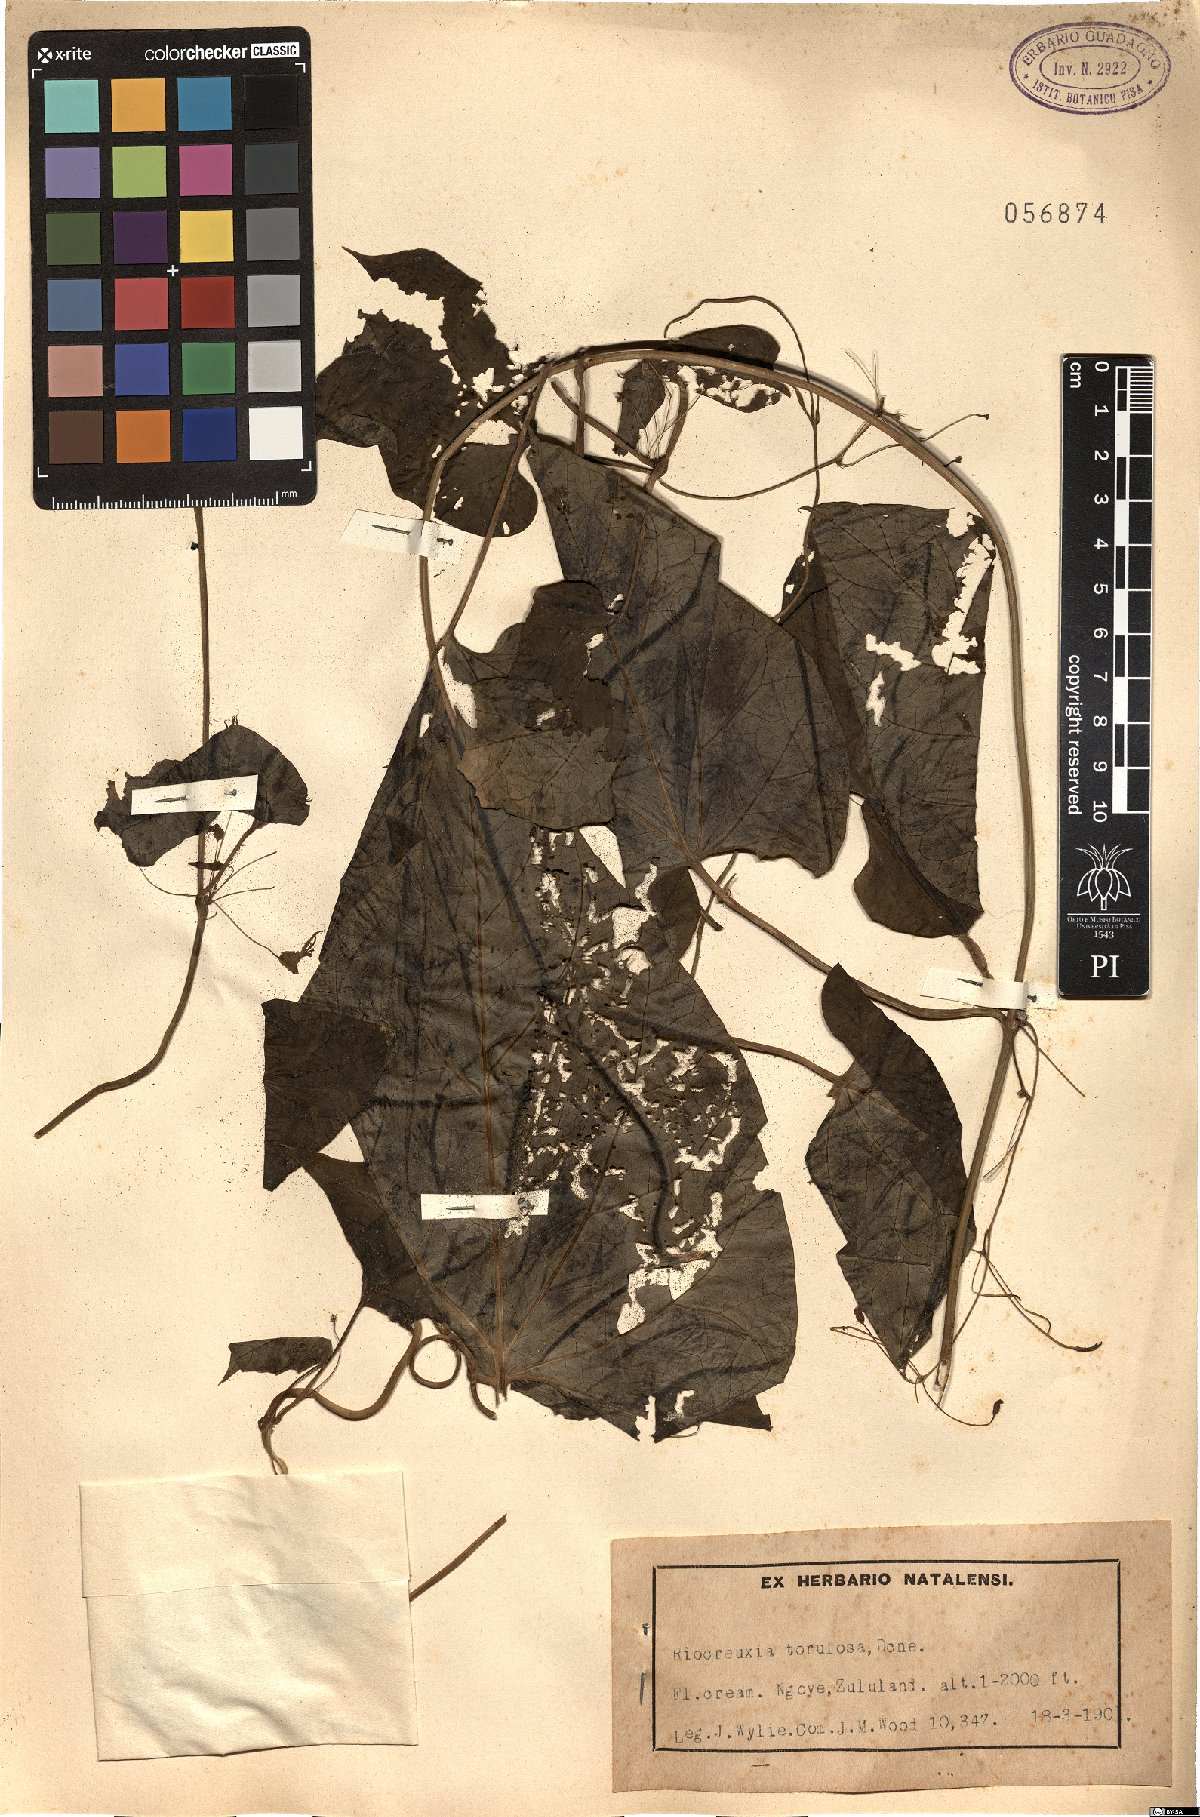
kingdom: Plantae
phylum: Tracheophyta
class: Magnoliopsida
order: Gentianales
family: Apocynaceae
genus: Riocreuxia
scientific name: Riocreuxia torulosa
